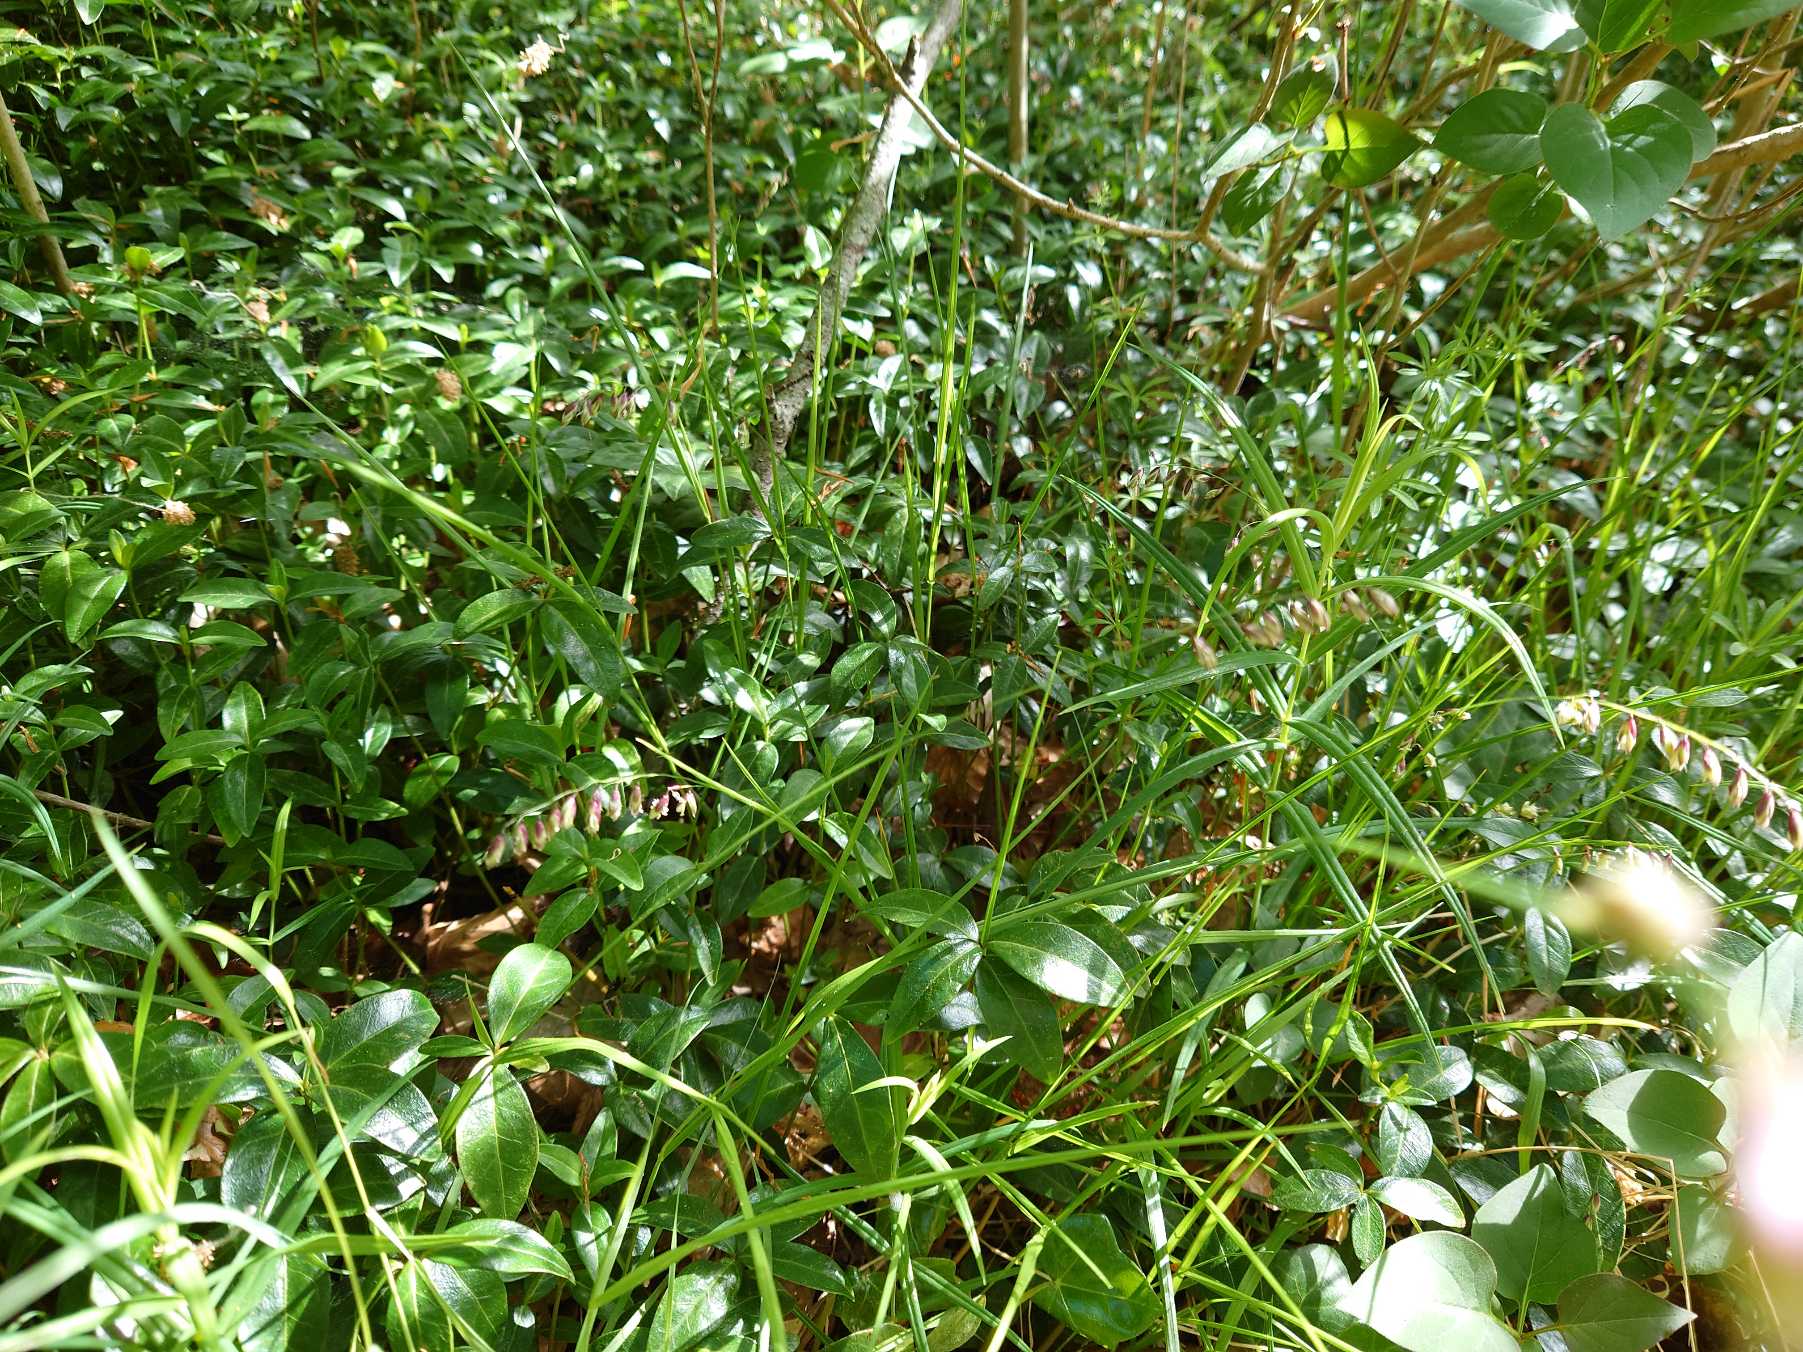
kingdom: Plantae
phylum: Tracheophyta
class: Liliopsida
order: Poales
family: Poaceae
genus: Melica
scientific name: Melica nutans
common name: Nikkende flitteraks
